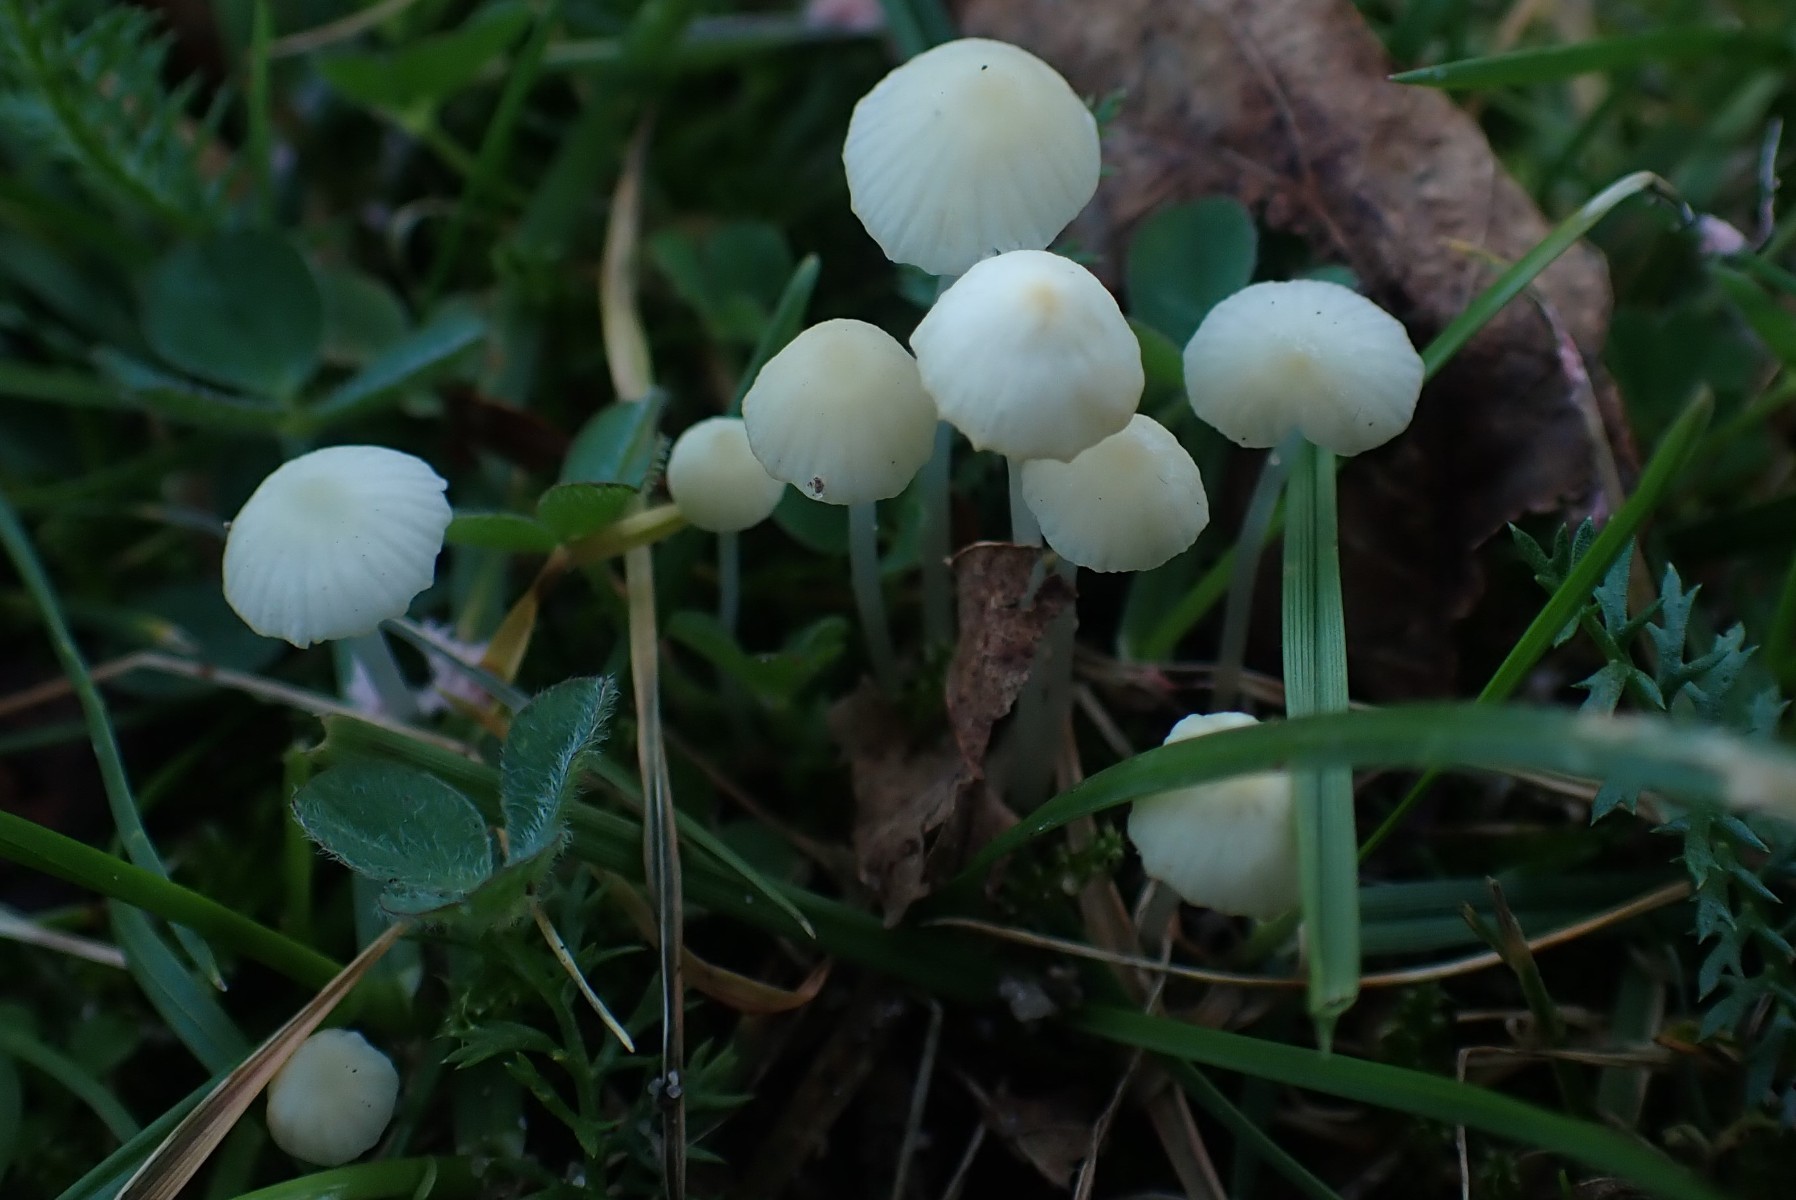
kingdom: Fungi
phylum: Basidiomycota
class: Agaricomycetes
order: Agaricales
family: Mycenaceae
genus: Atheniella
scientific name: Atheniella flavoalba
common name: gulhvid huesvamp
